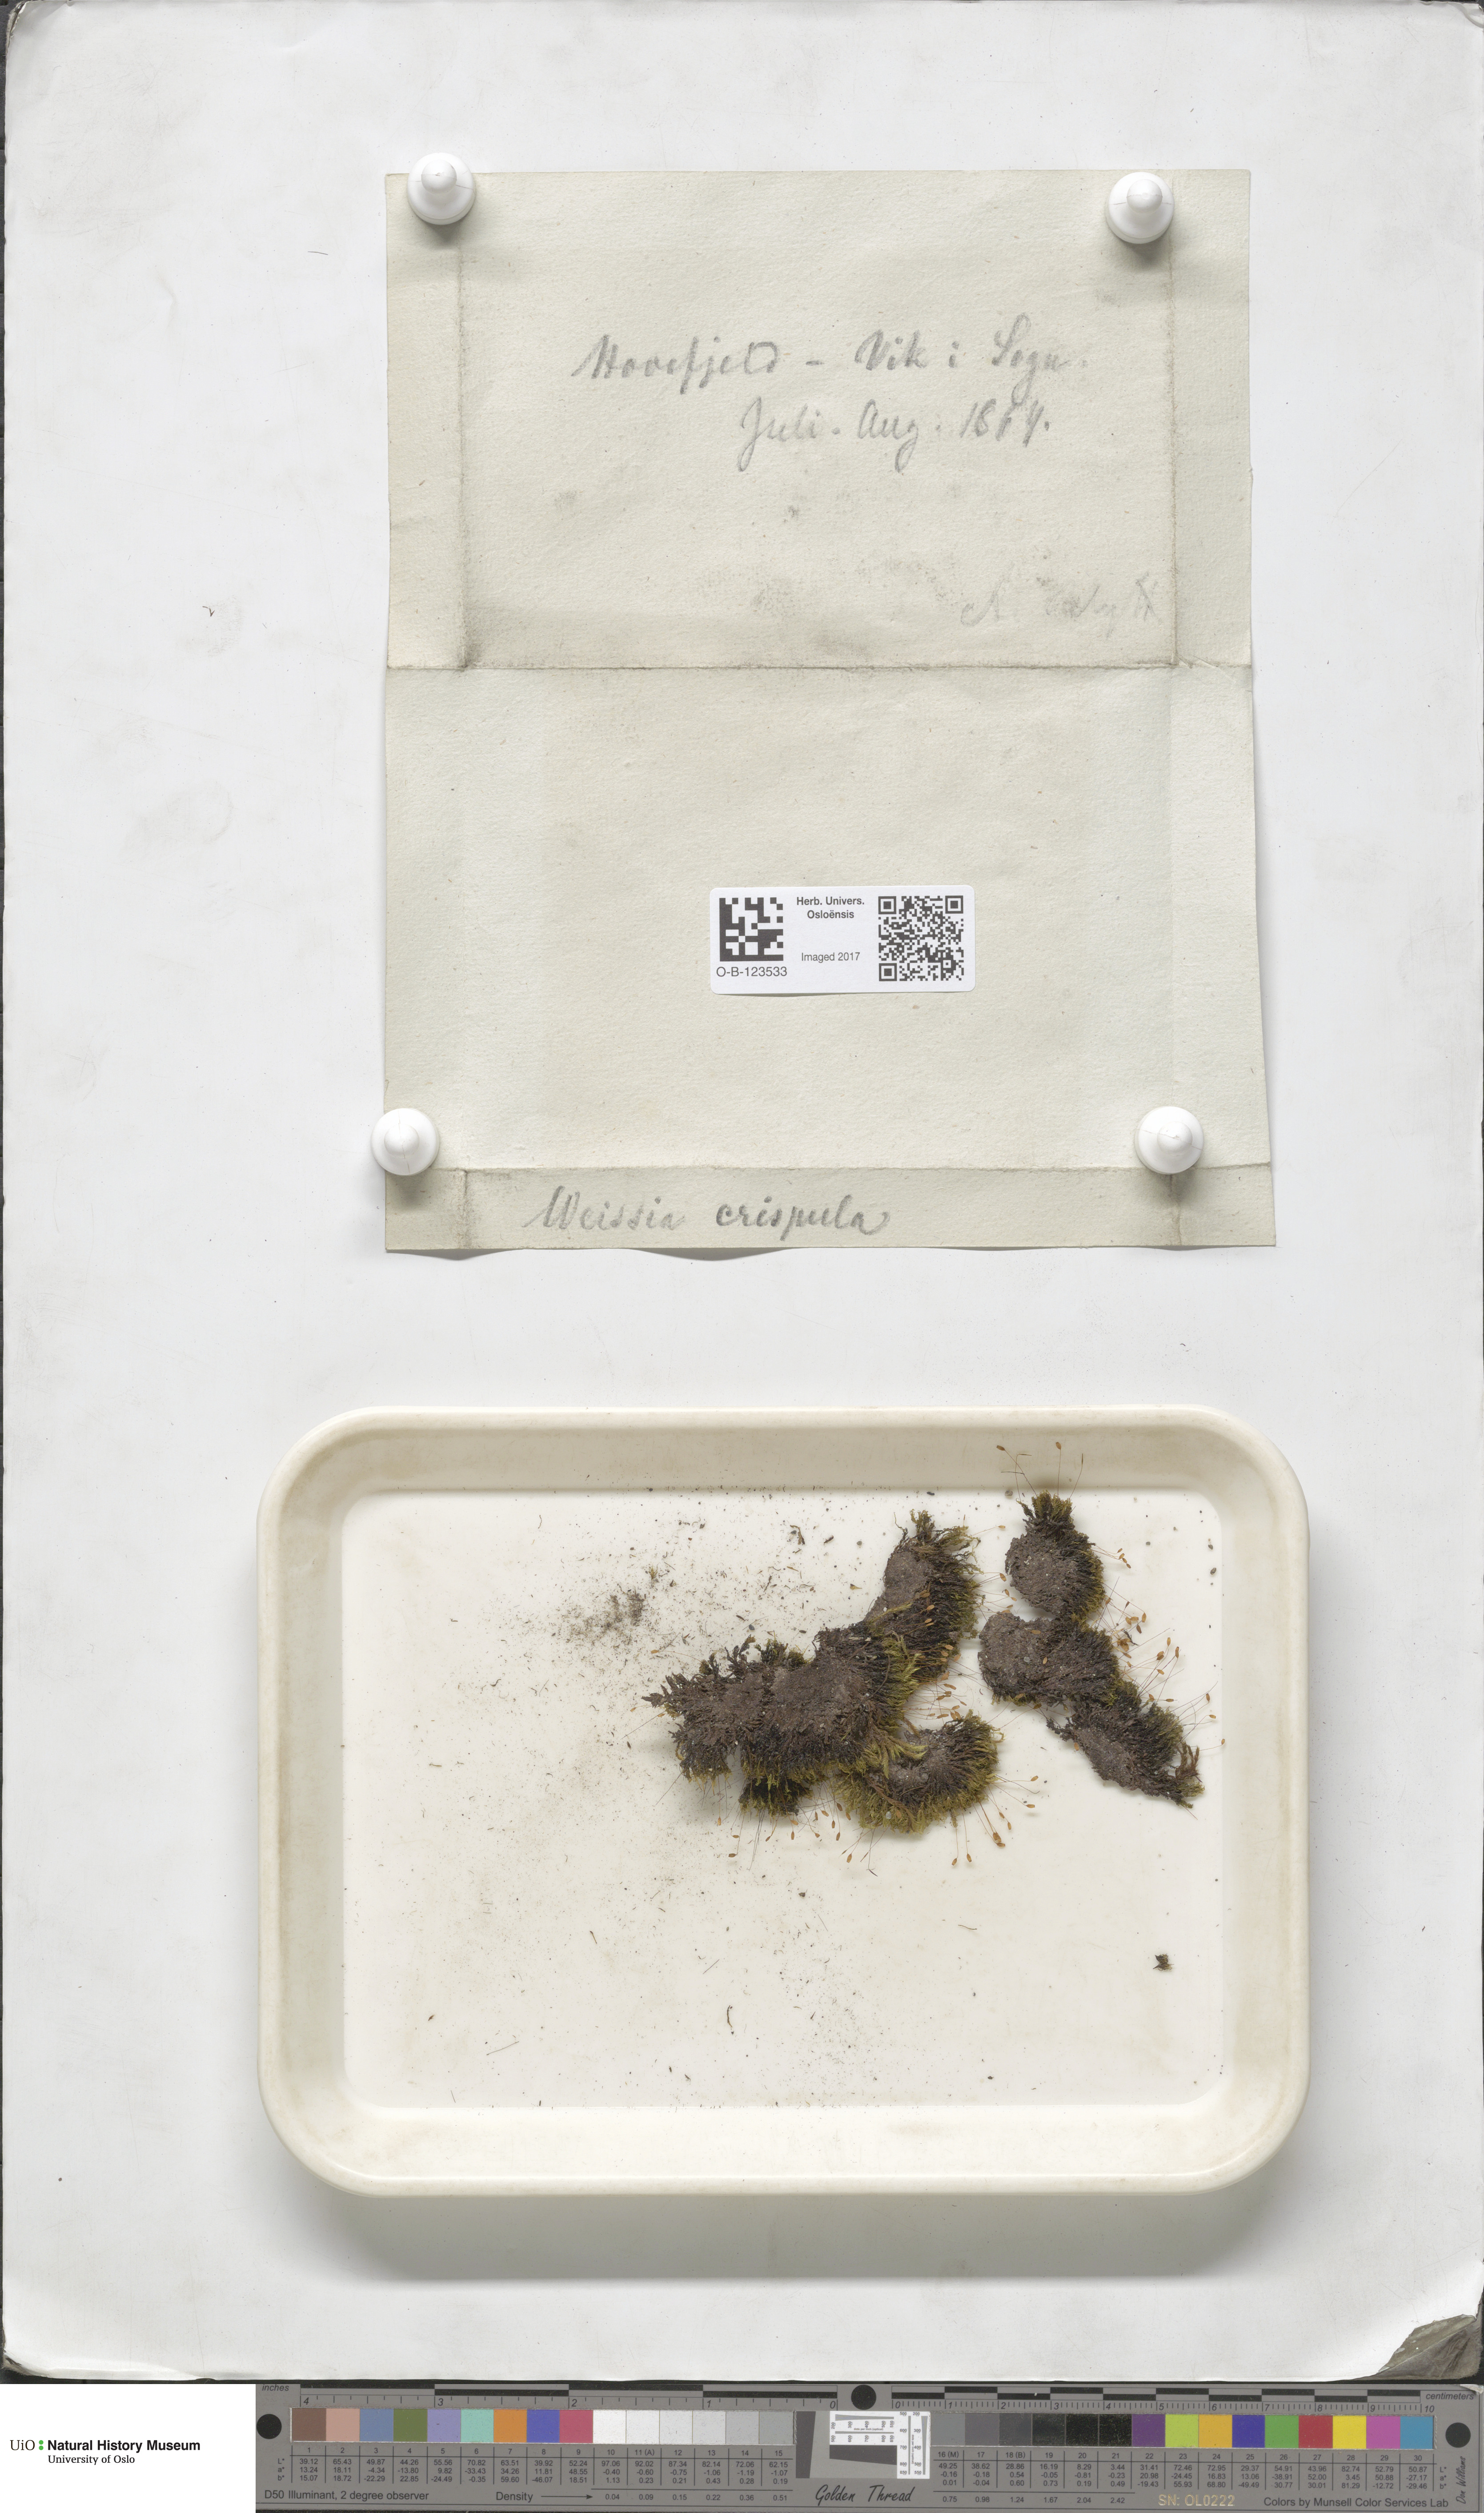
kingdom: Plantae
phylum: Bryophyta
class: Bryopsida
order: Scouleriales
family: Hymenolomataceae
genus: Hymenoloma
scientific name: Hymenoloma crispulum
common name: Mountain pincushion
